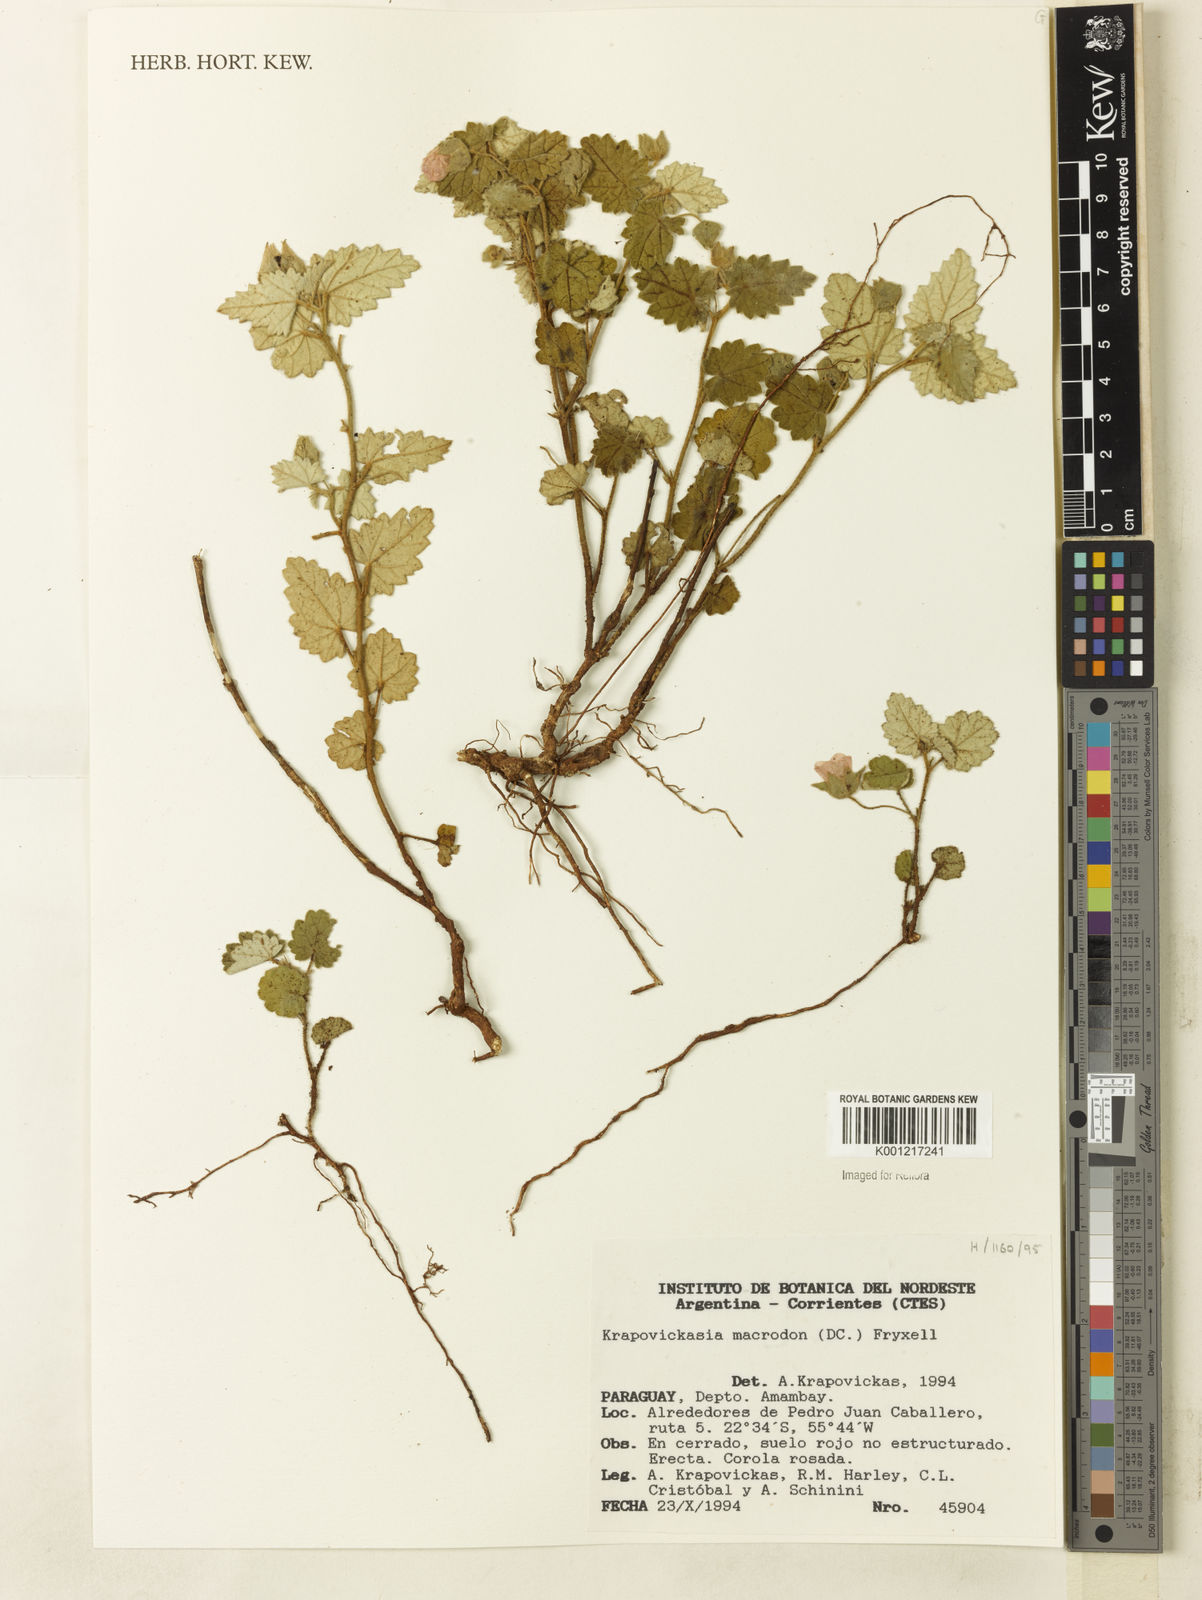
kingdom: Plantae
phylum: Tracheophyta
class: Magnoliopsida
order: Malvales
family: Malvaceae
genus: Krapovickasia
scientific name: Krapovickasia macrodon
